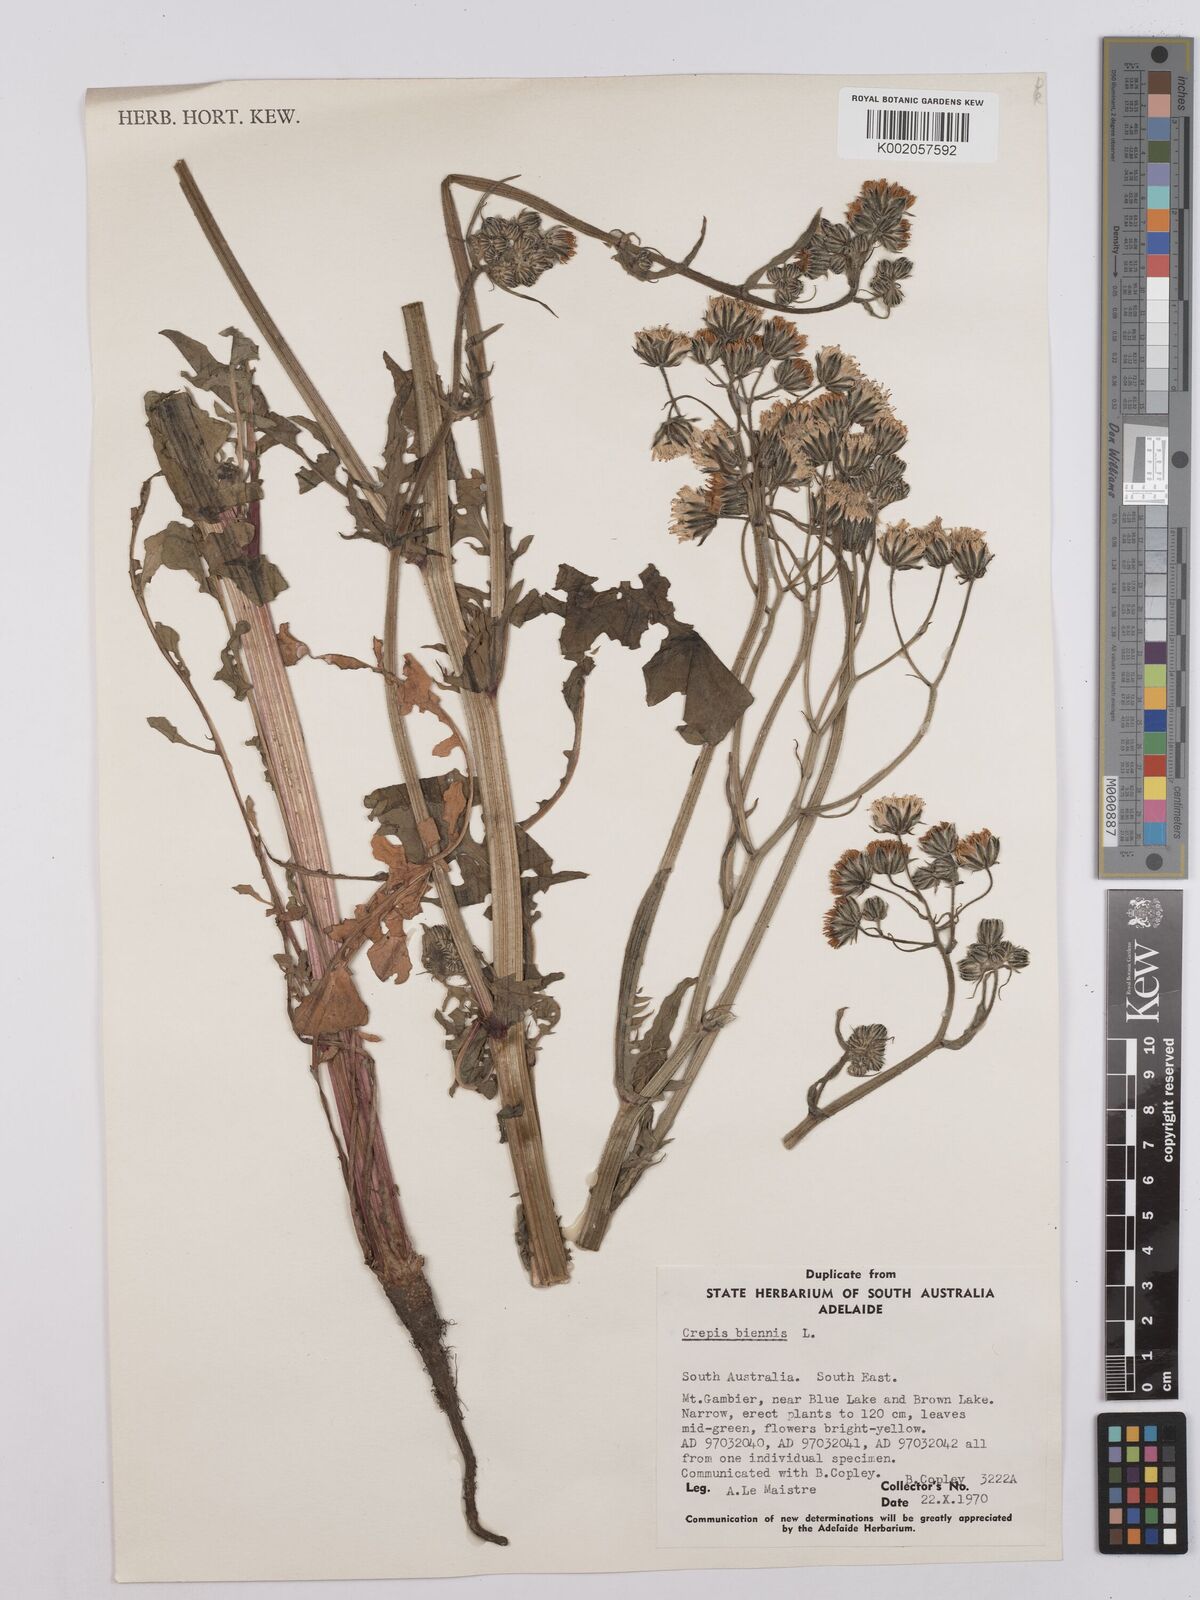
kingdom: Plantae
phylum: Tracheophyta
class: Magnoliopsida
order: Asterales
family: Asteraceae
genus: Crepis
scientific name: Crepis biennis
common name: Rough hawk's-beard
